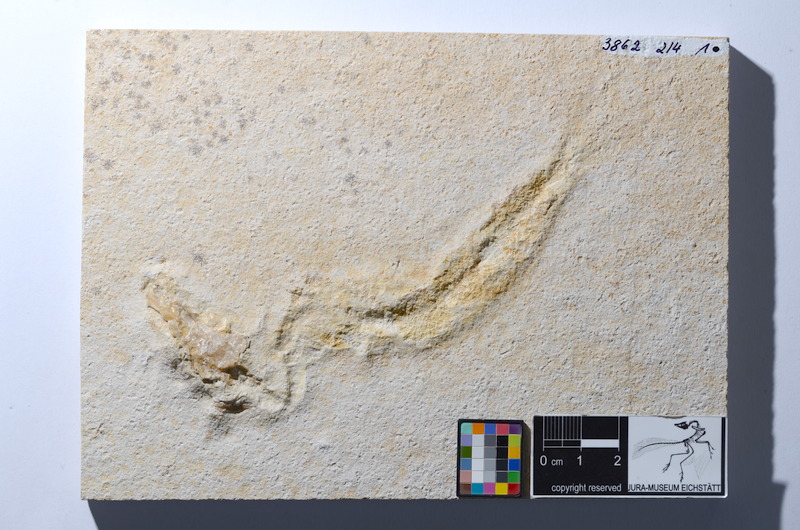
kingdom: Animalia
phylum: Chordata
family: Ascalaboidae
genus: Tharsis
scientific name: Tharsis dubius
